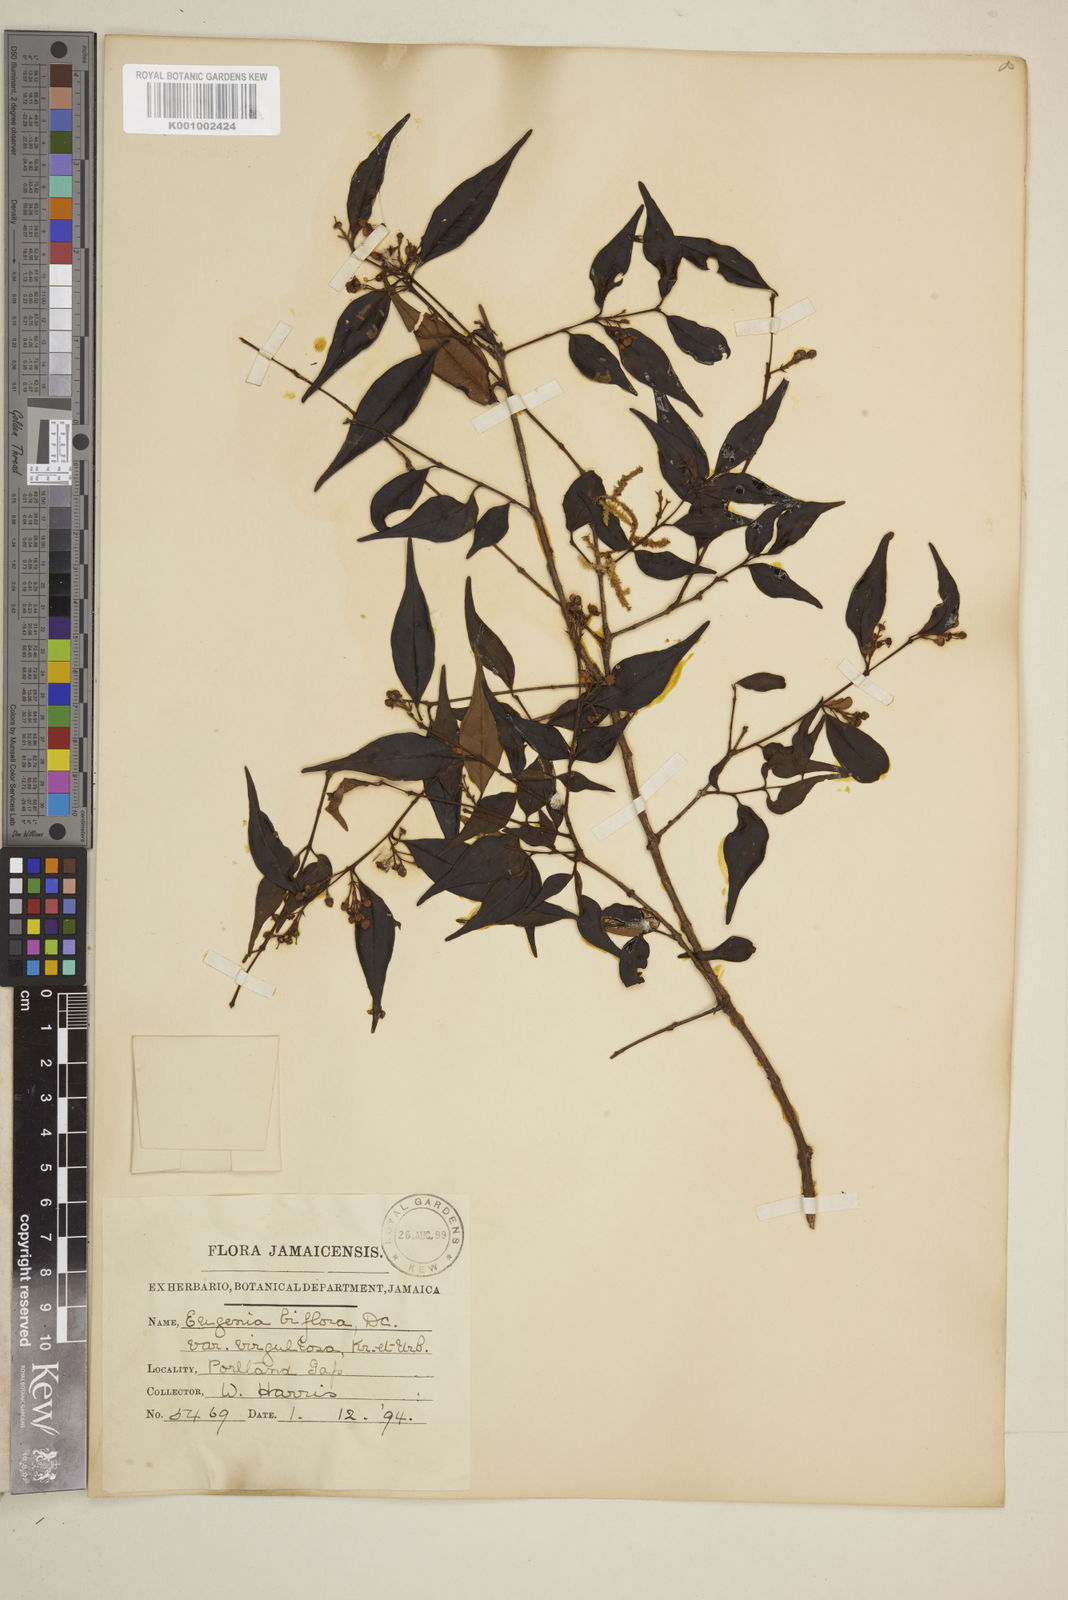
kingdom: Plantae
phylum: Tracheophyta
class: Magnoliopsida
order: Myrtales
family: Myrtaceae
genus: Eugenia
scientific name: Eugenia biflora
